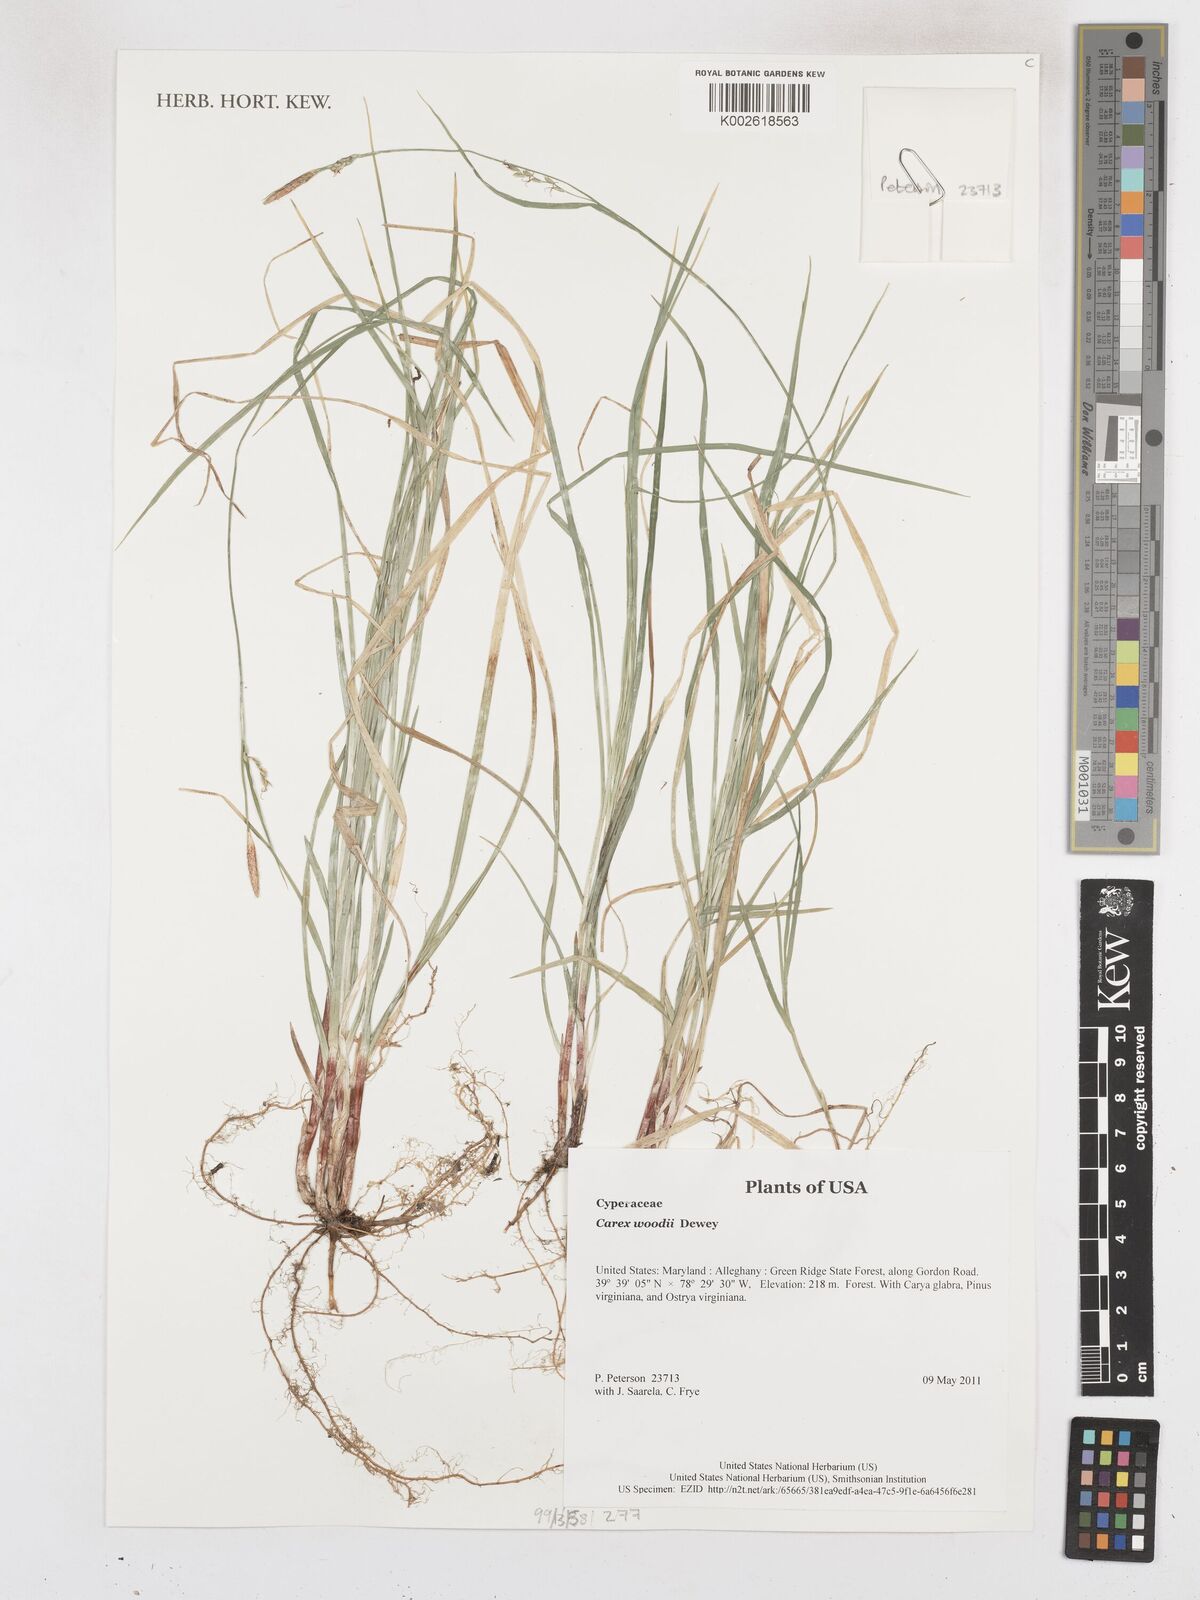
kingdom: Plantae
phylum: Tracheophyta
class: Liliopsida
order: Poales
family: Cyperaceae
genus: Carex
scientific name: Carex woodii
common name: Wood's sedge
